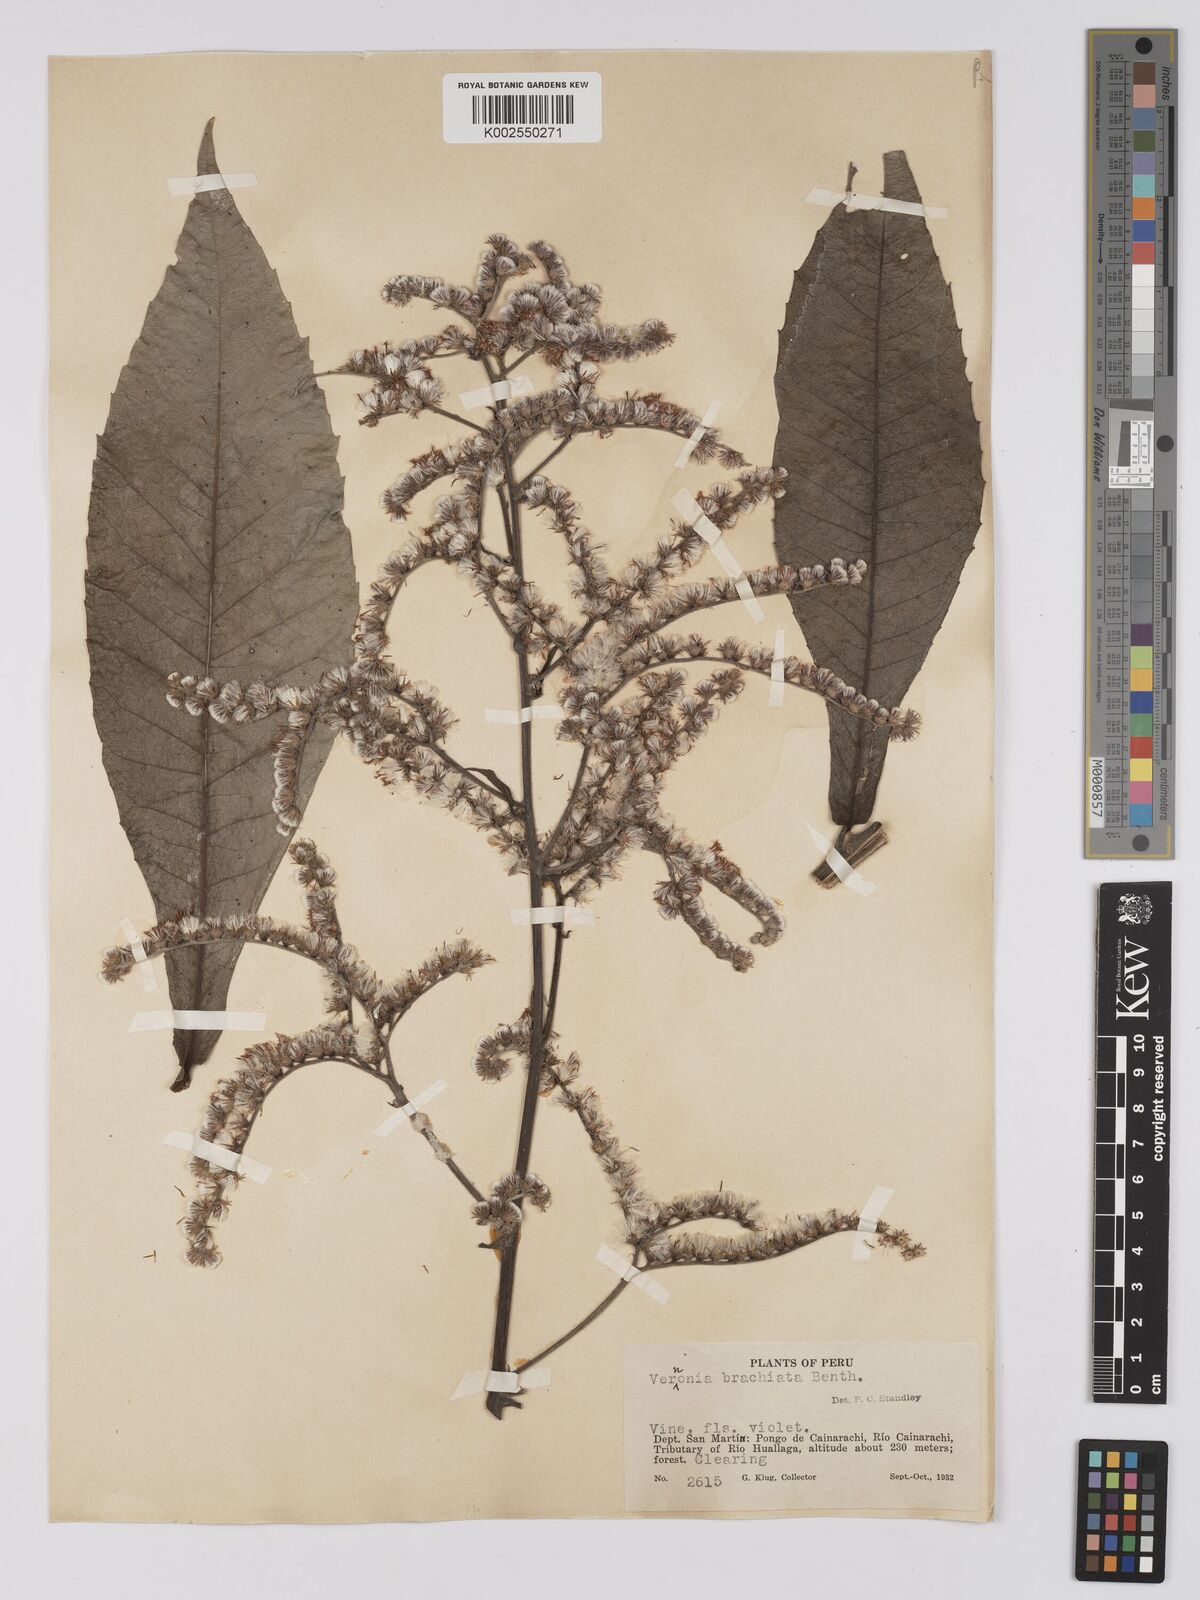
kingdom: Plantae
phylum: Tracheophyta
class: Magnoliopsida
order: Asterales
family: Asteraceae
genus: Eirmocephala
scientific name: Eirmocephala brachiata
